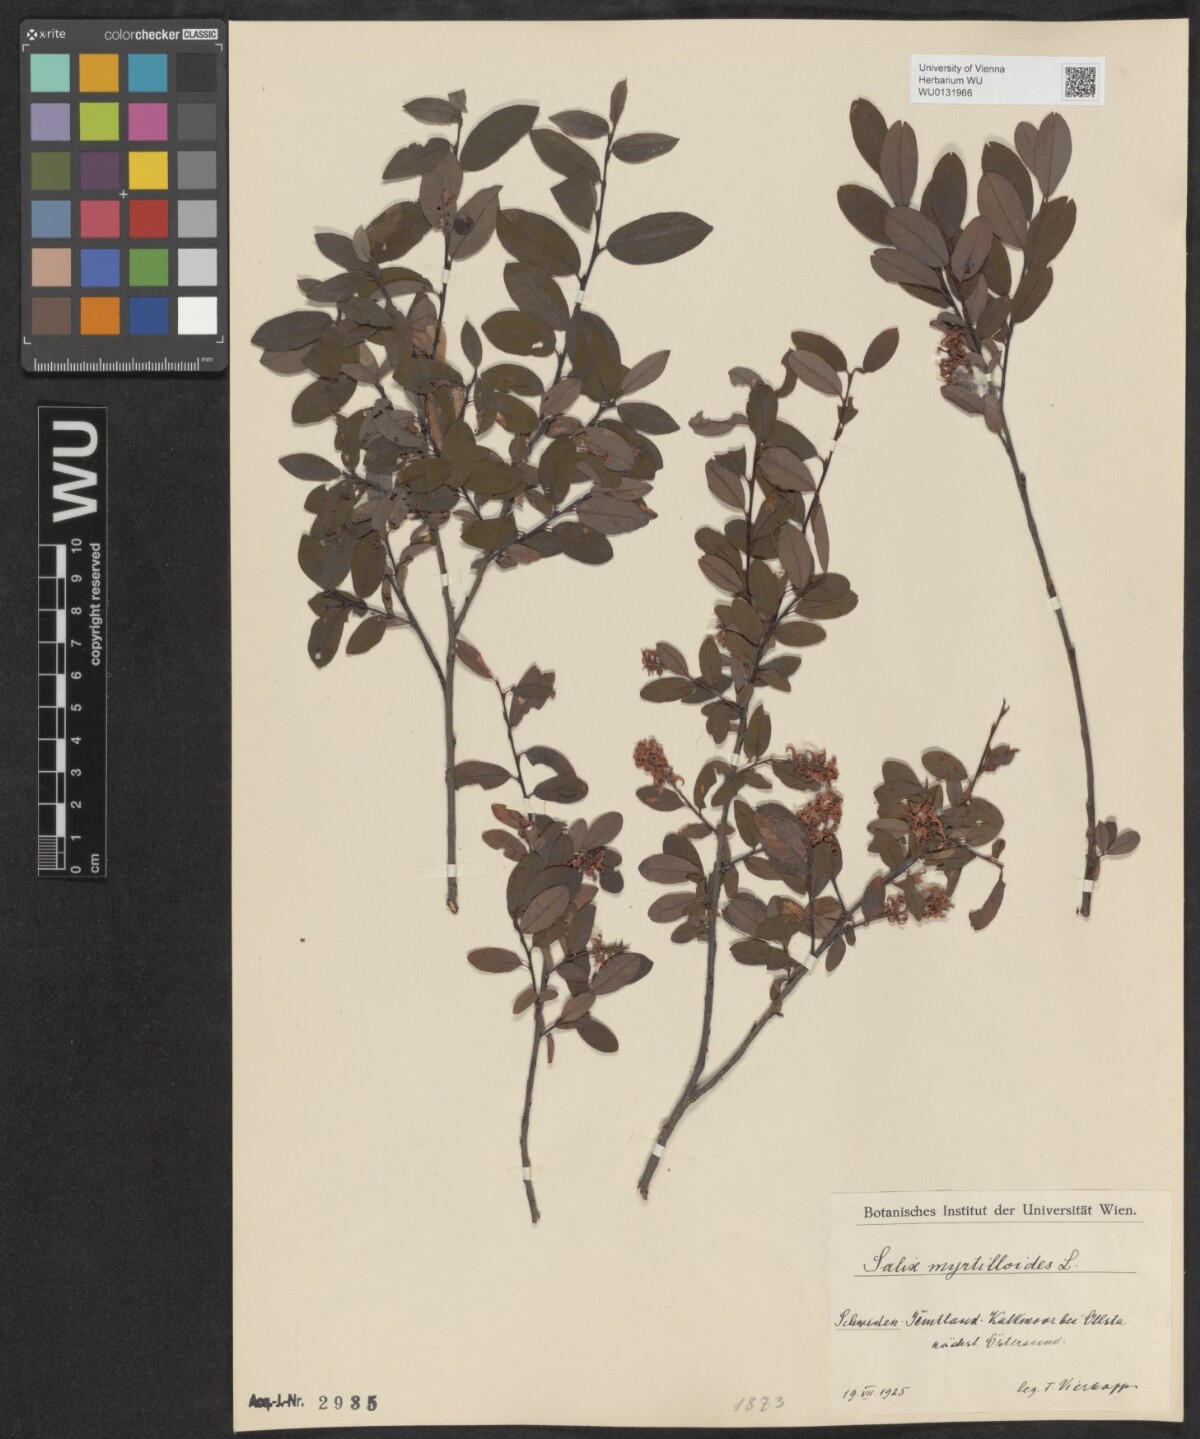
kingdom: Plantae
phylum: Tracheophyta
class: Magnoliopsida
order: Malpighiales
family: Salicaceae
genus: Salix
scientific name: Salix myrtilloides
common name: Myrtle-leaved willow
